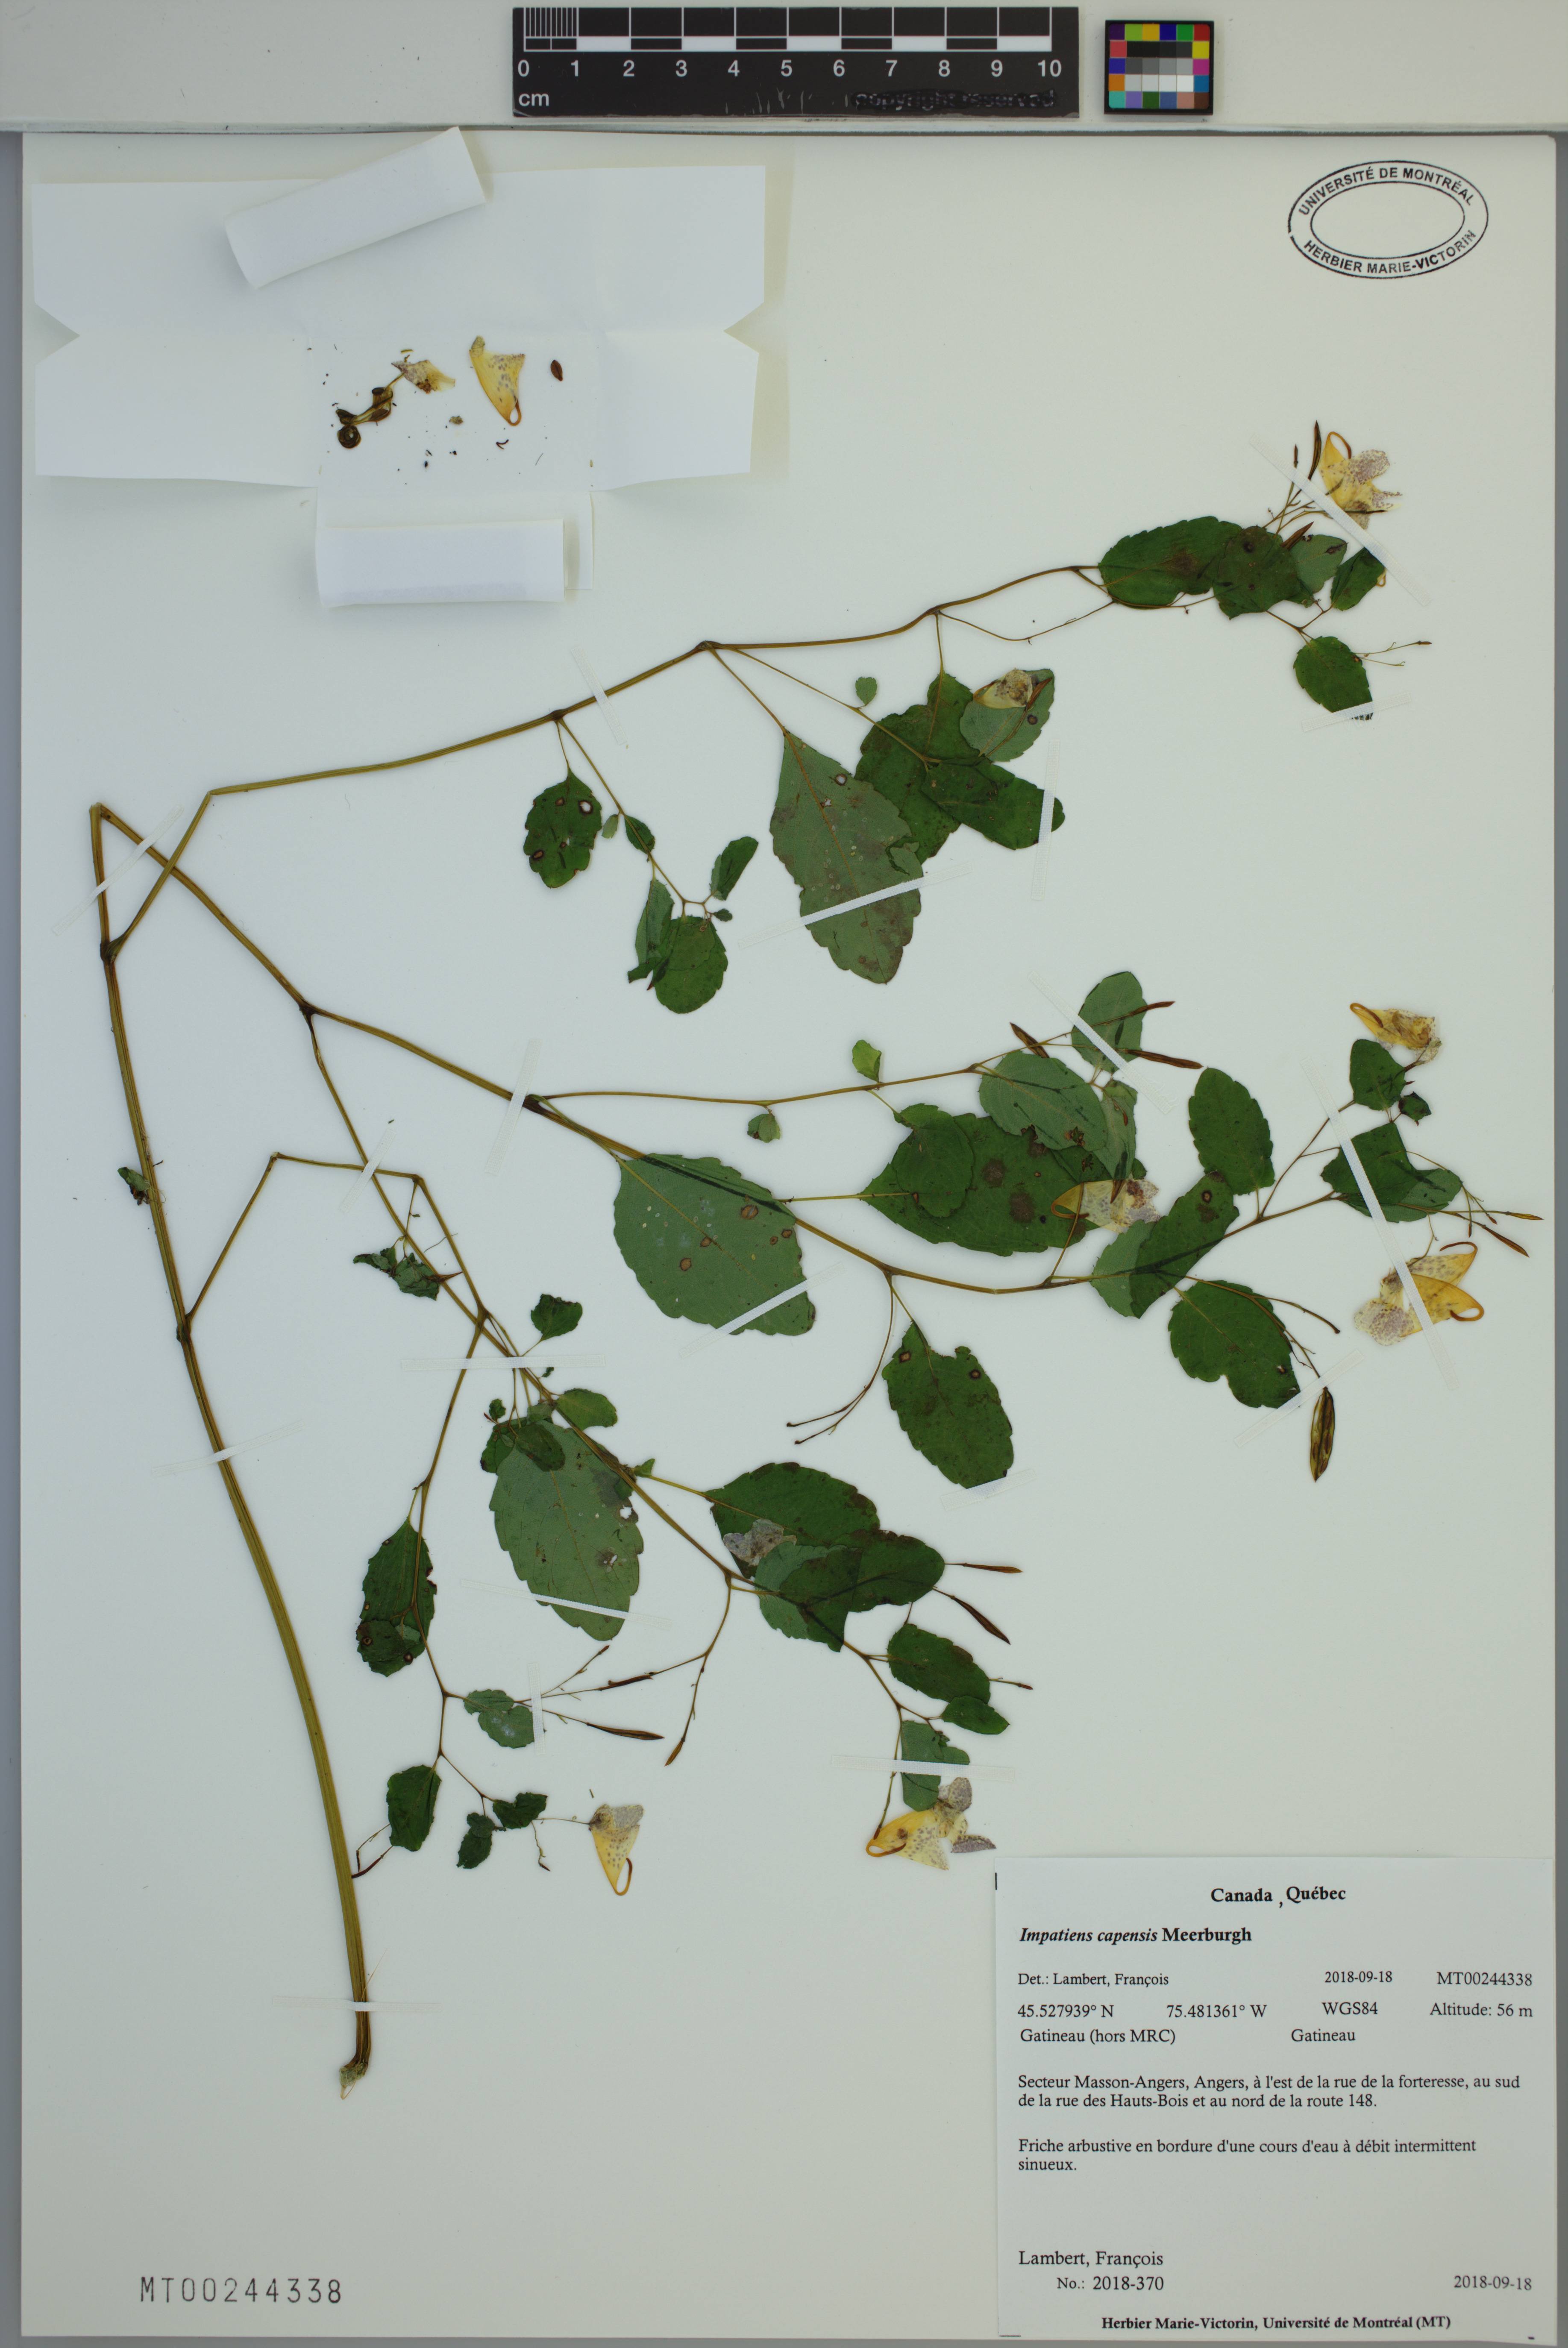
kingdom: Plantae
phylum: Tracheophyta
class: Magnoliopsida
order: Ericales
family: Balsaminaceae
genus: Impatiens
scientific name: Impatiens capensis
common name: Orange balsam
